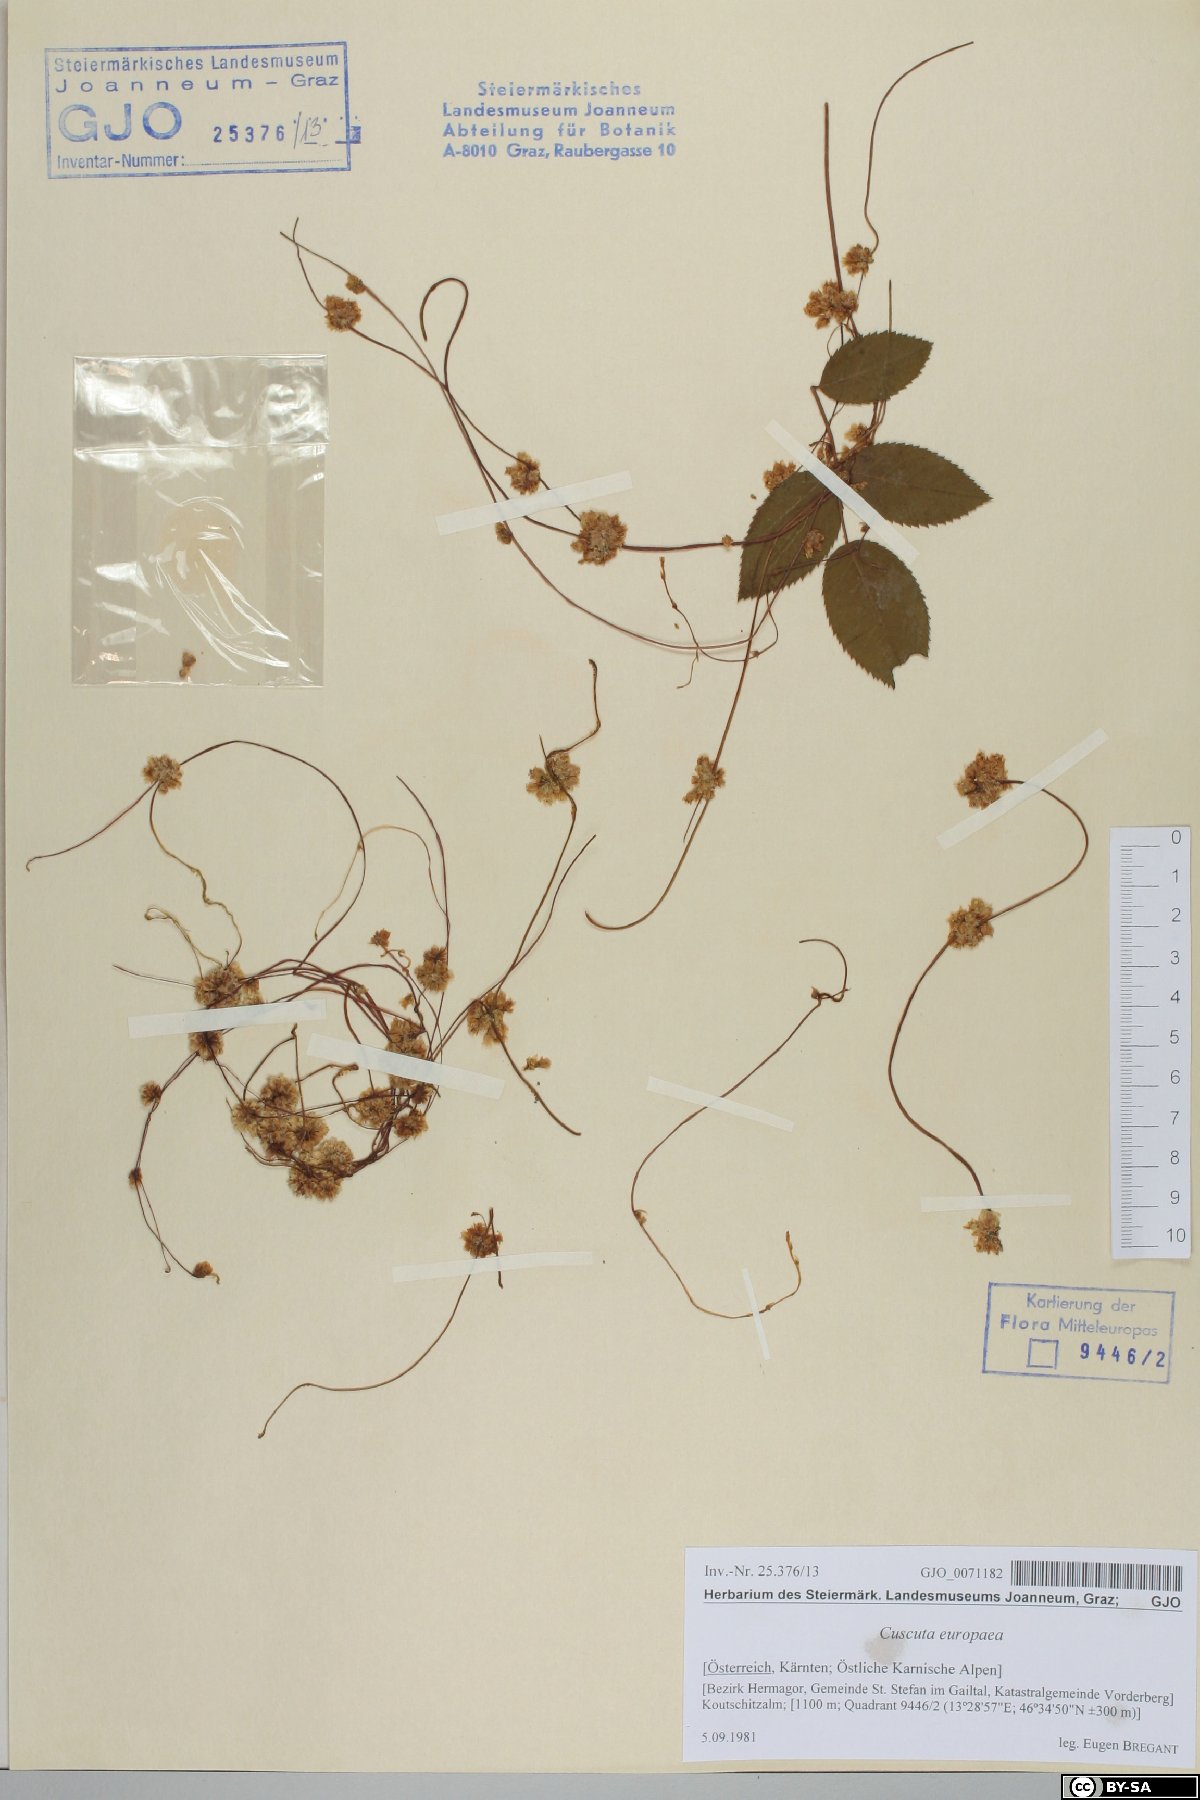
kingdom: Plantae
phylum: Tracheophyta
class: Magnoliopsida
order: Solanales
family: Convolvulaceae
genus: Cuscuta
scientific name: Cuscuta europaea
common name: Greater dodder
